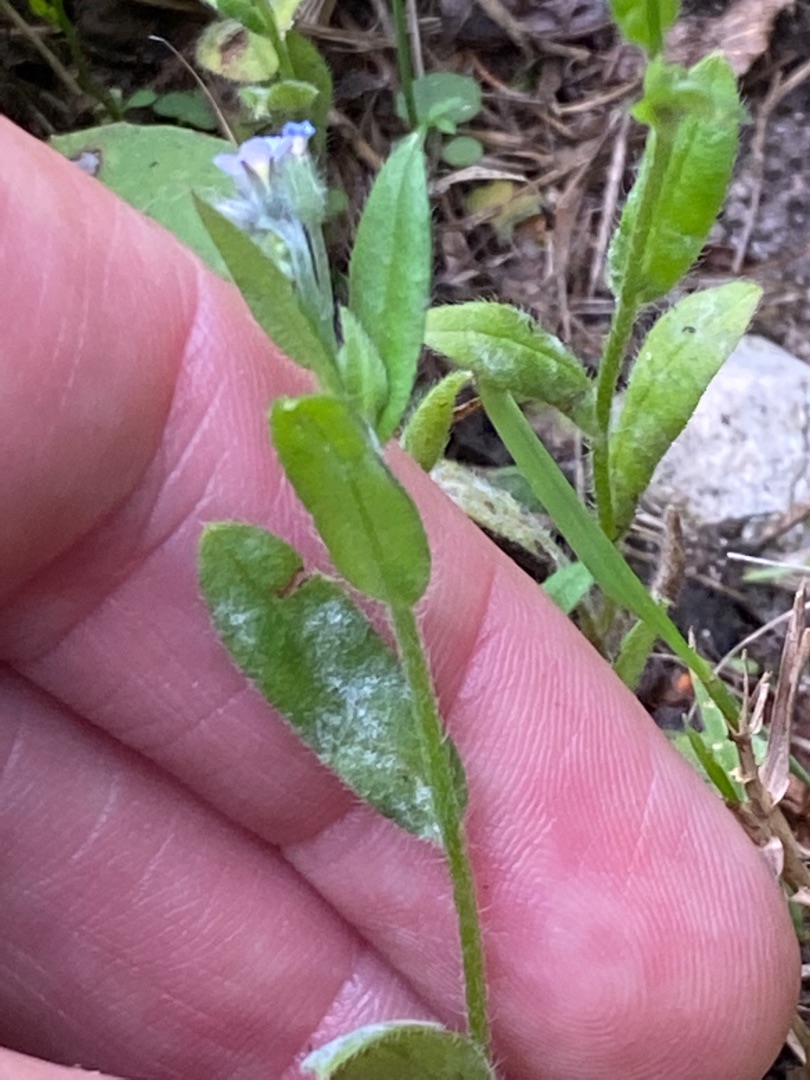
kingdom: Plantae
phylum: Tracheophyta
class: Magnoliopsida
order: Boraginales
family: Boraginaceae
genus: Myosotis
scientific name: Myosotis arvensis
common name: Mark-forglemmigej
